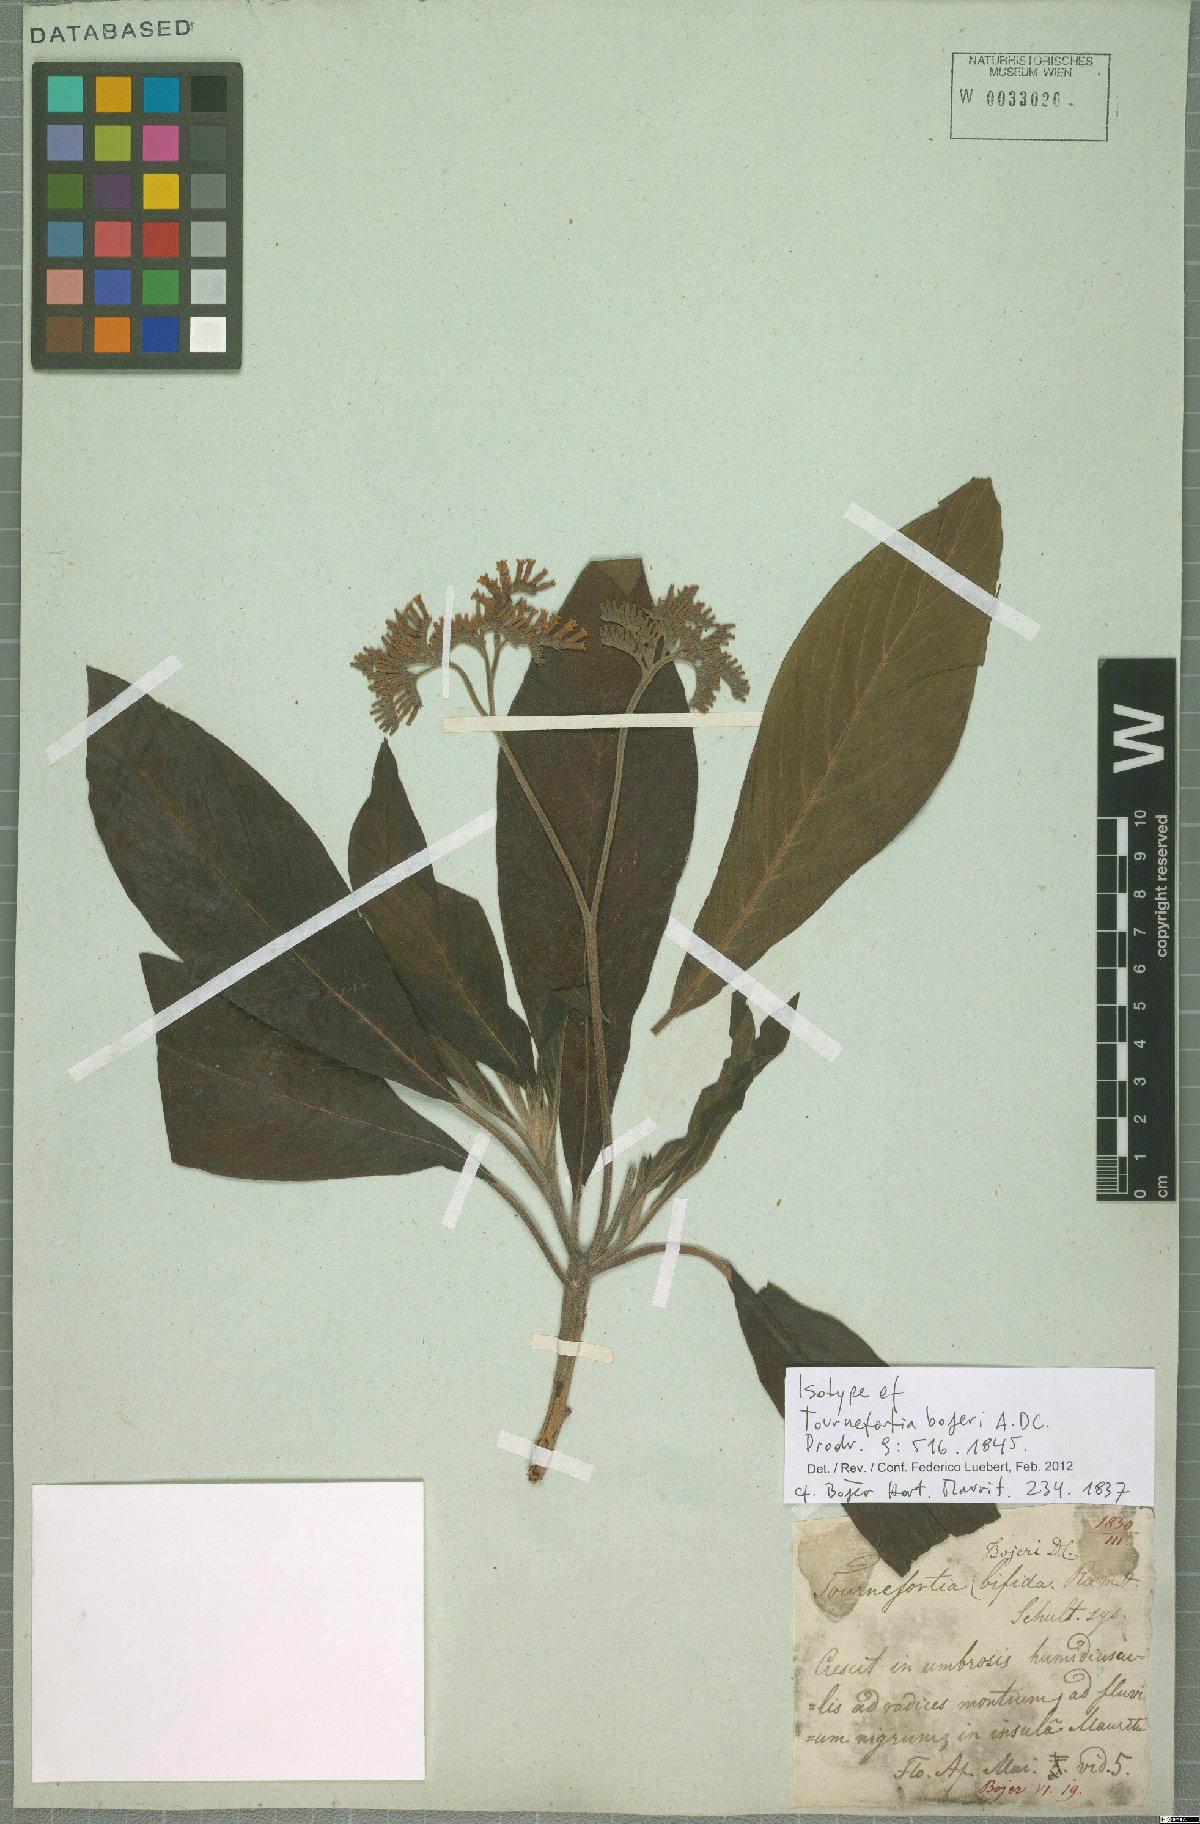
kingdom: Plantae
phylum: Tracheophyta
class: Magnoliopsida
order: Boraginales
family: Heliotropiaceae
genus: Tournefortia
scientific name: Tournefortia bojeri
